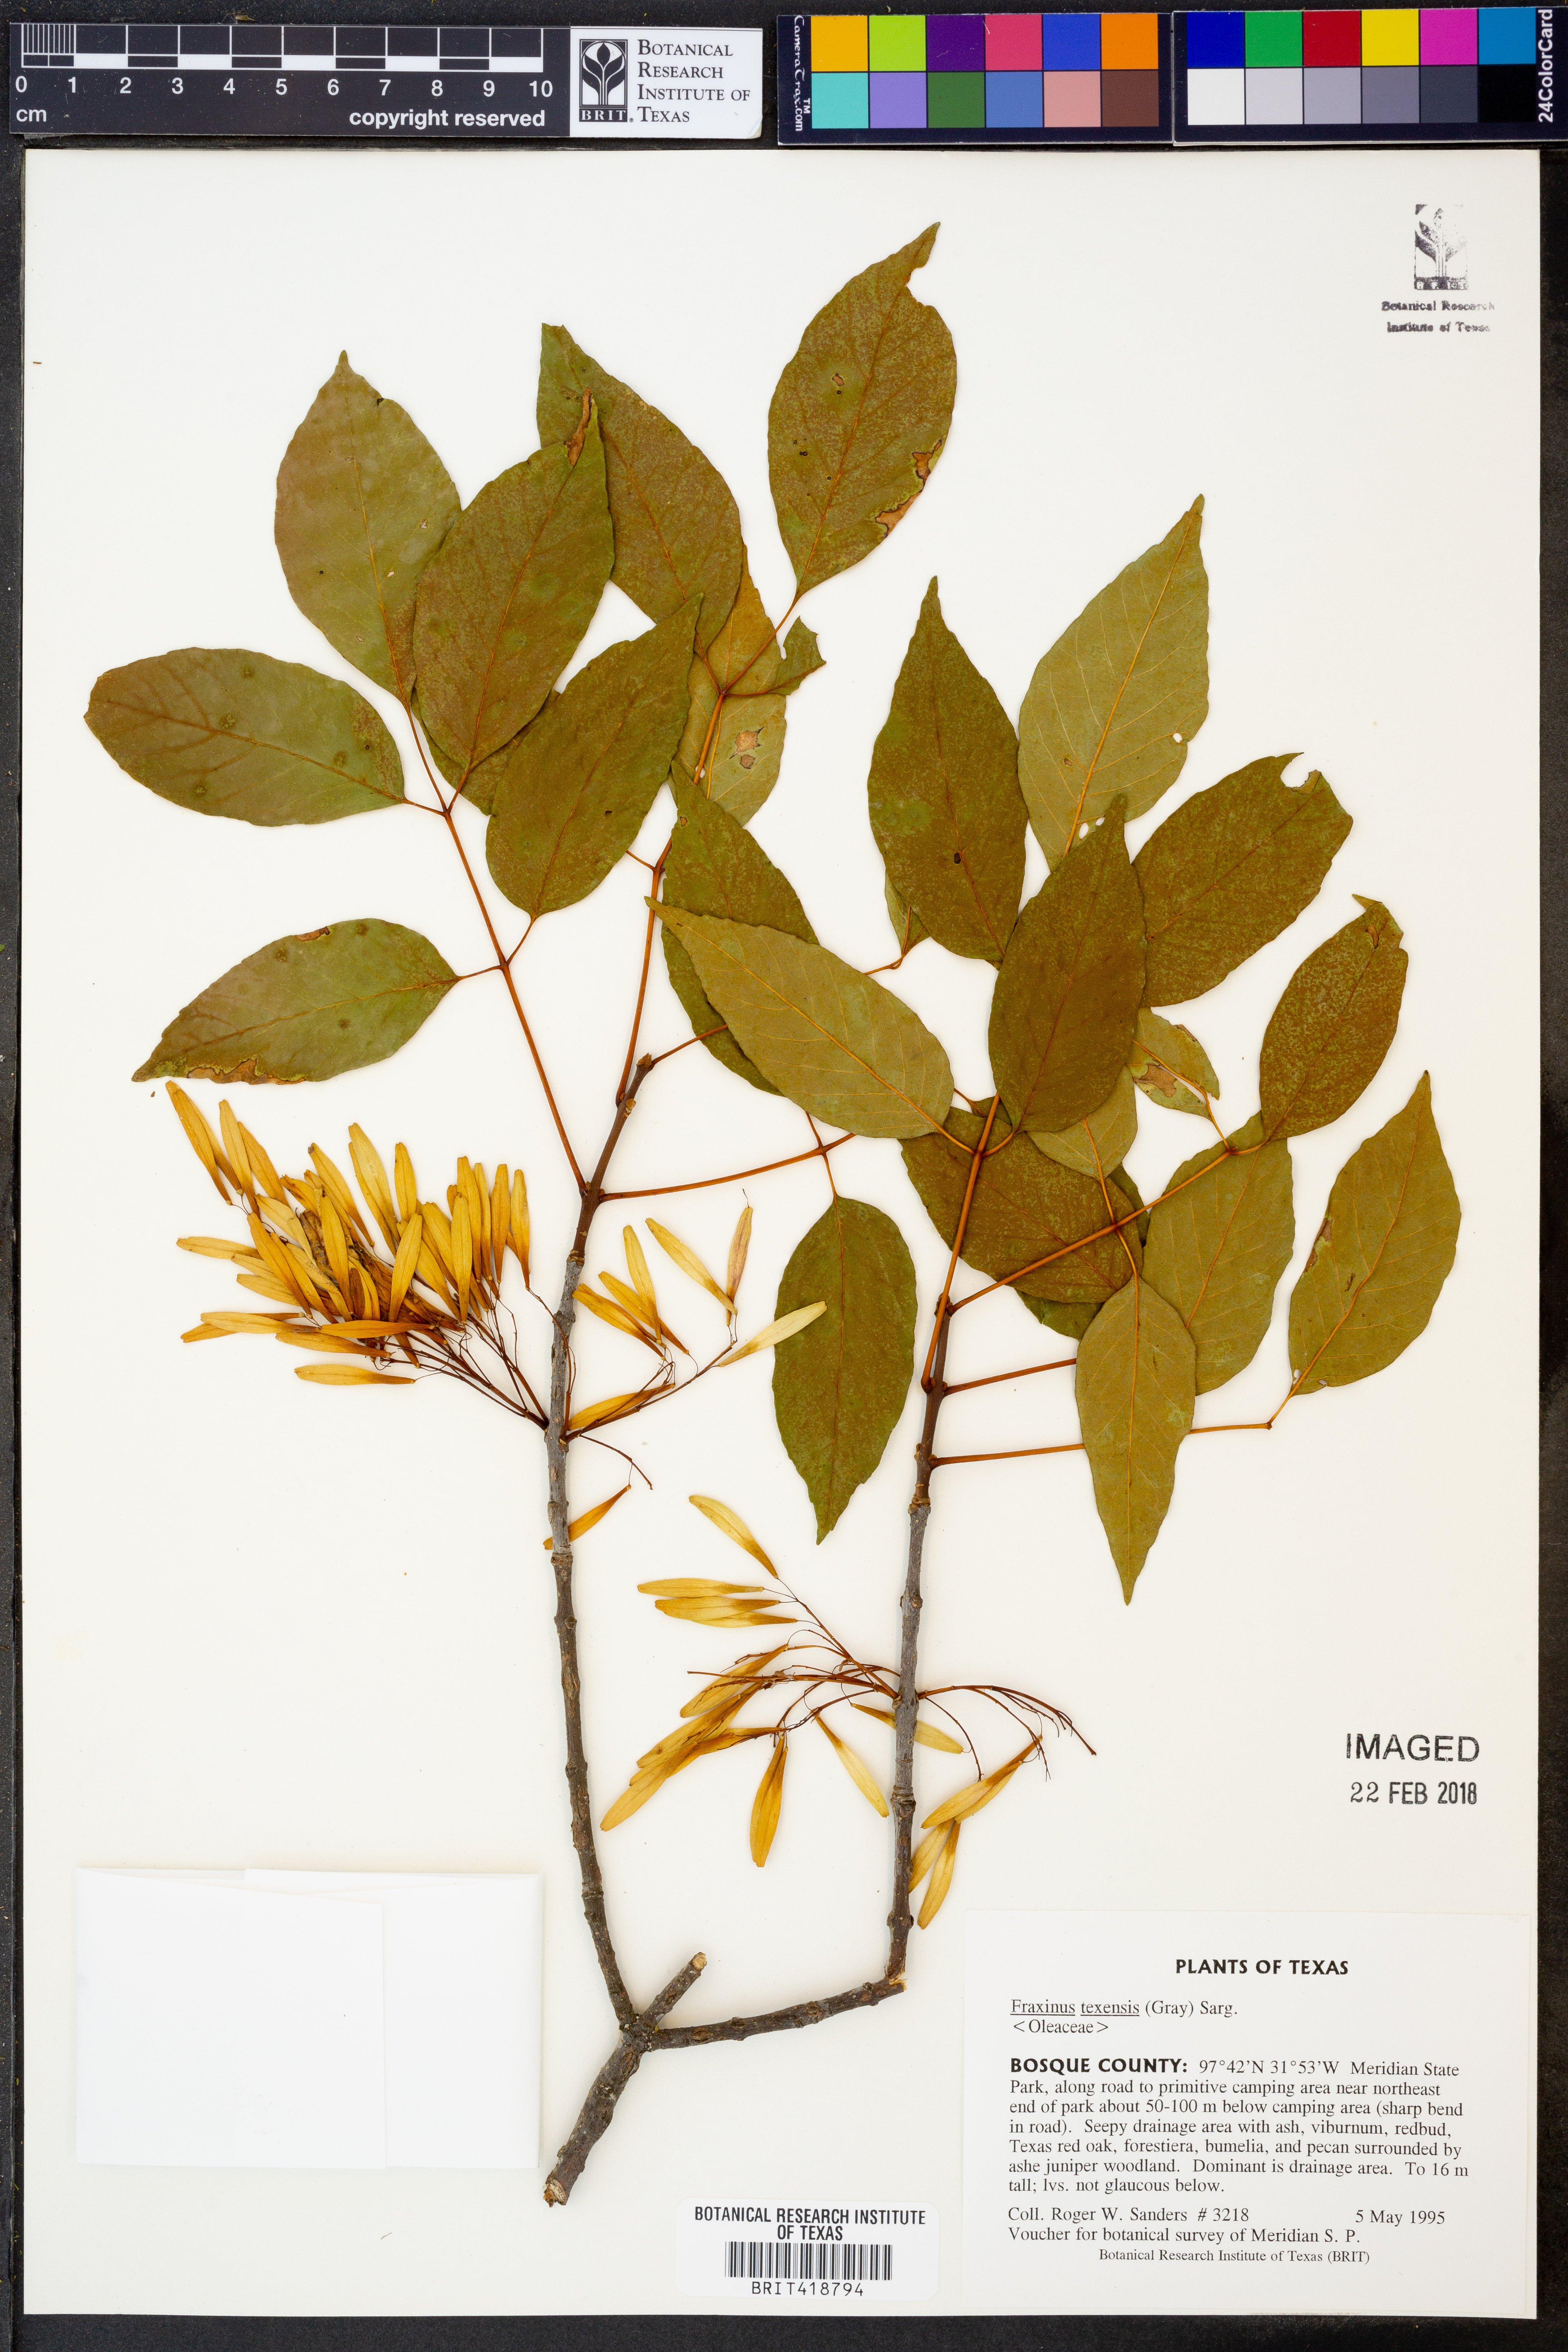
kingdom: Plantae
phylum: Tracheophyta
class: Magnoliopsida
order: Lamiales
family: Oleaceae
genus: Fraxinus
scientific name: Fraxinus albicans
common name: Texas ash
